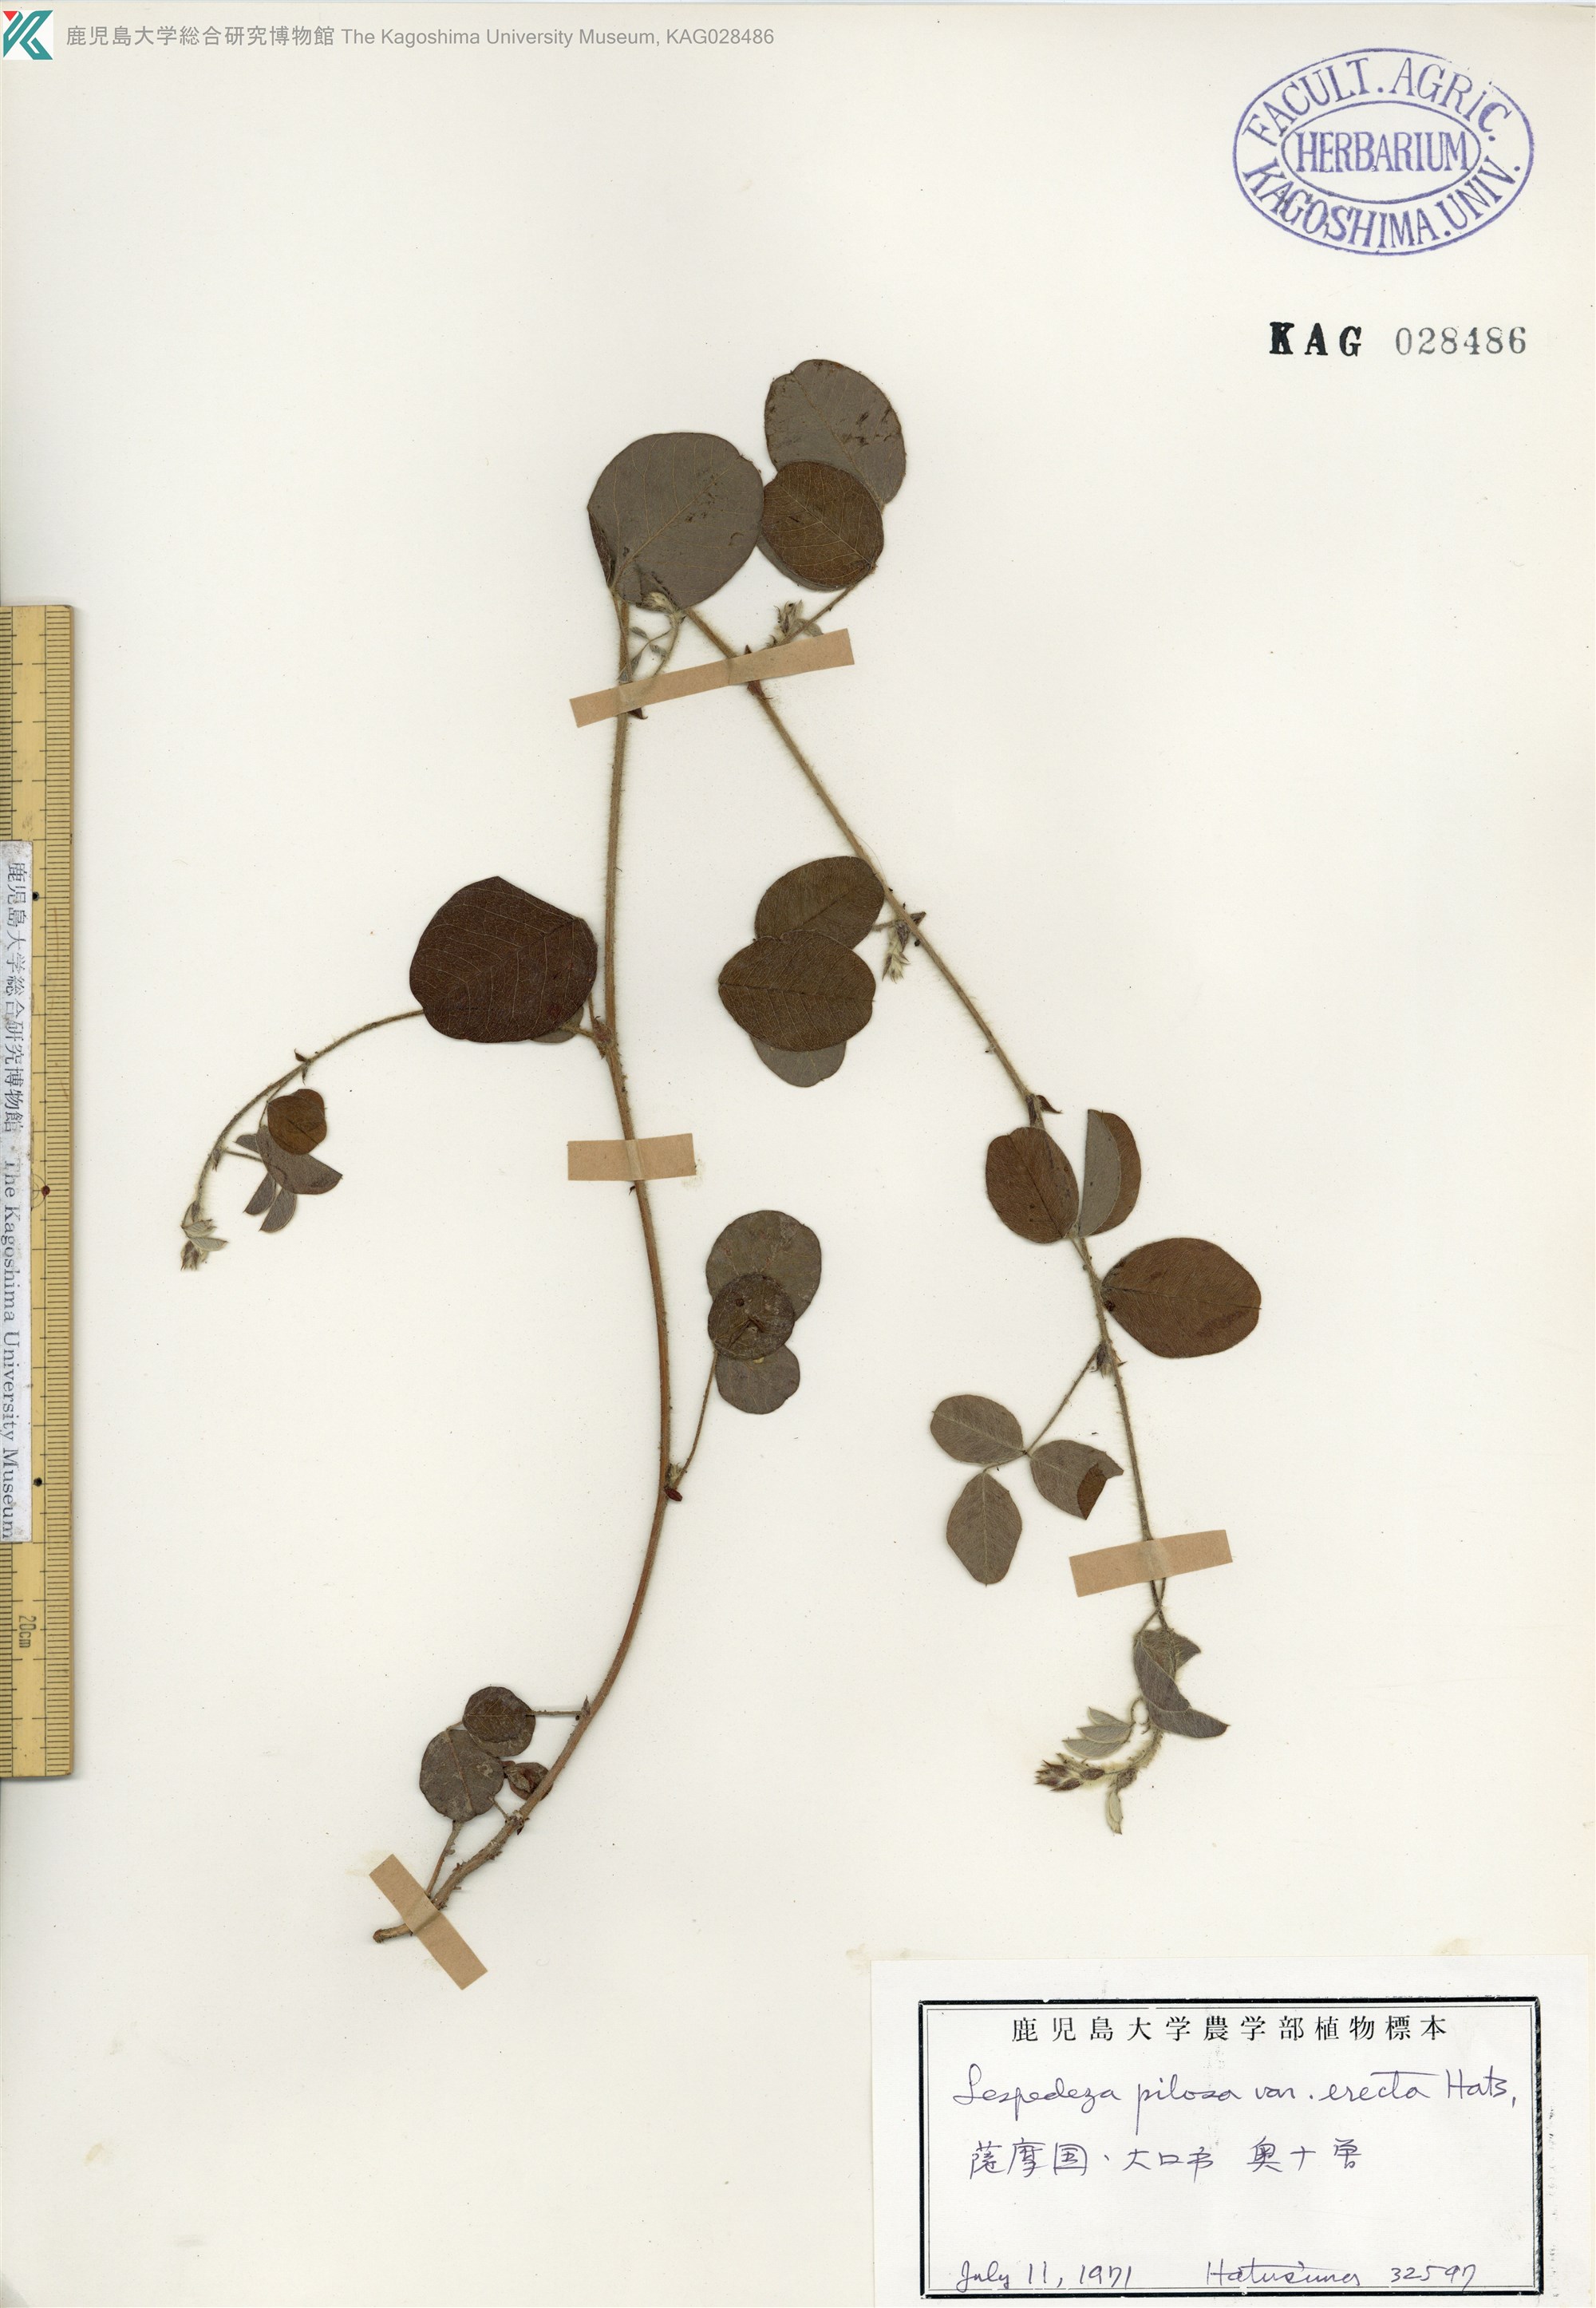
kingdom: Plantae
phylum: Tracheophyta
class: Magnoliopsida
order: Fabales
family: Fabaceae
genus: Lespedeza
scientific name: Lespedeza pilosa
